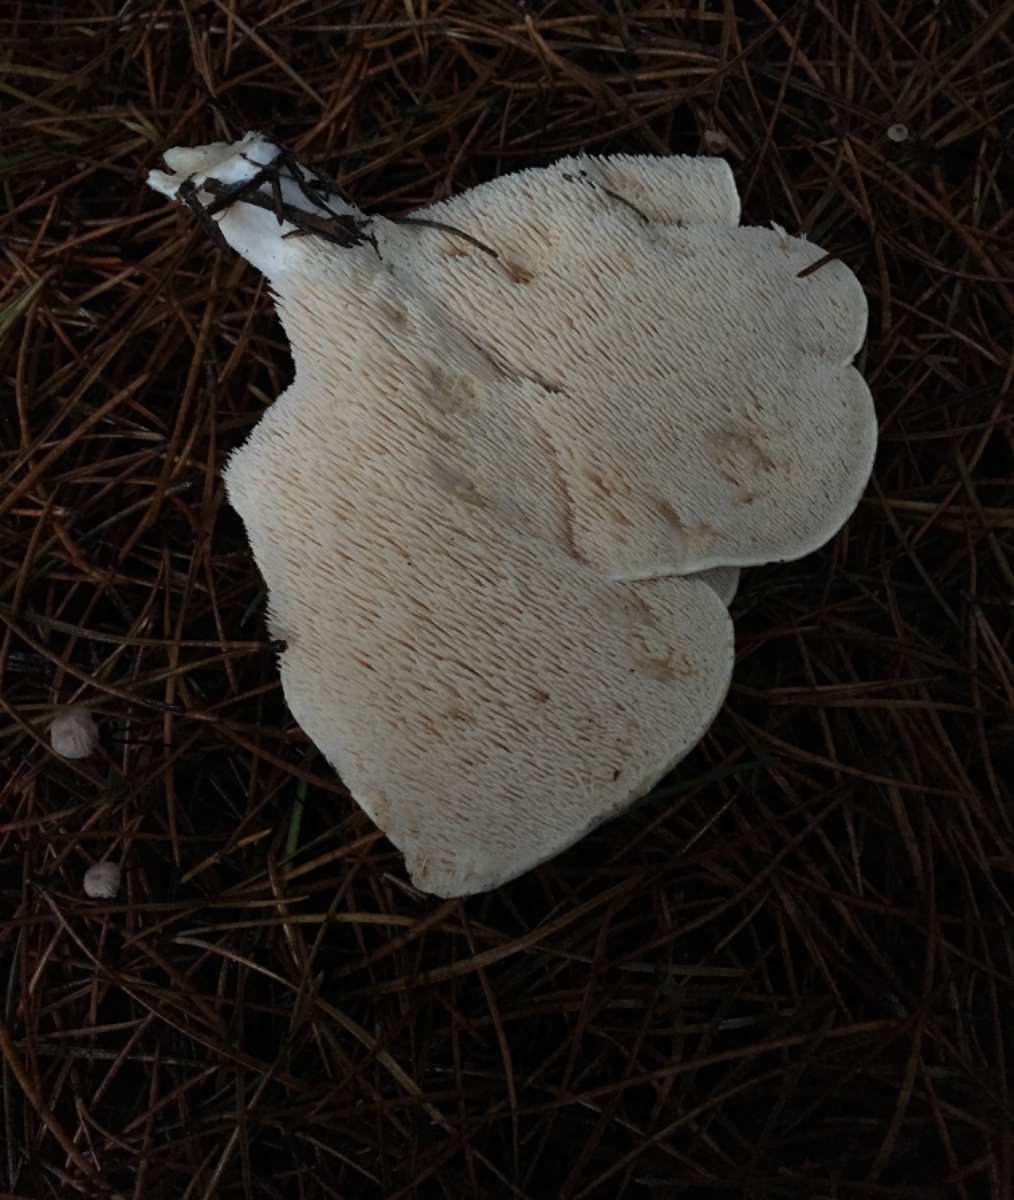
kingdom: Fungi
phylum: Basidiomycota
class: Agaricomycetes
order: Cantharellales
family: Hydnaceae
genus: Hydnum
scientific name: Hydnum repandum
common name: almindelig pigsvamp
